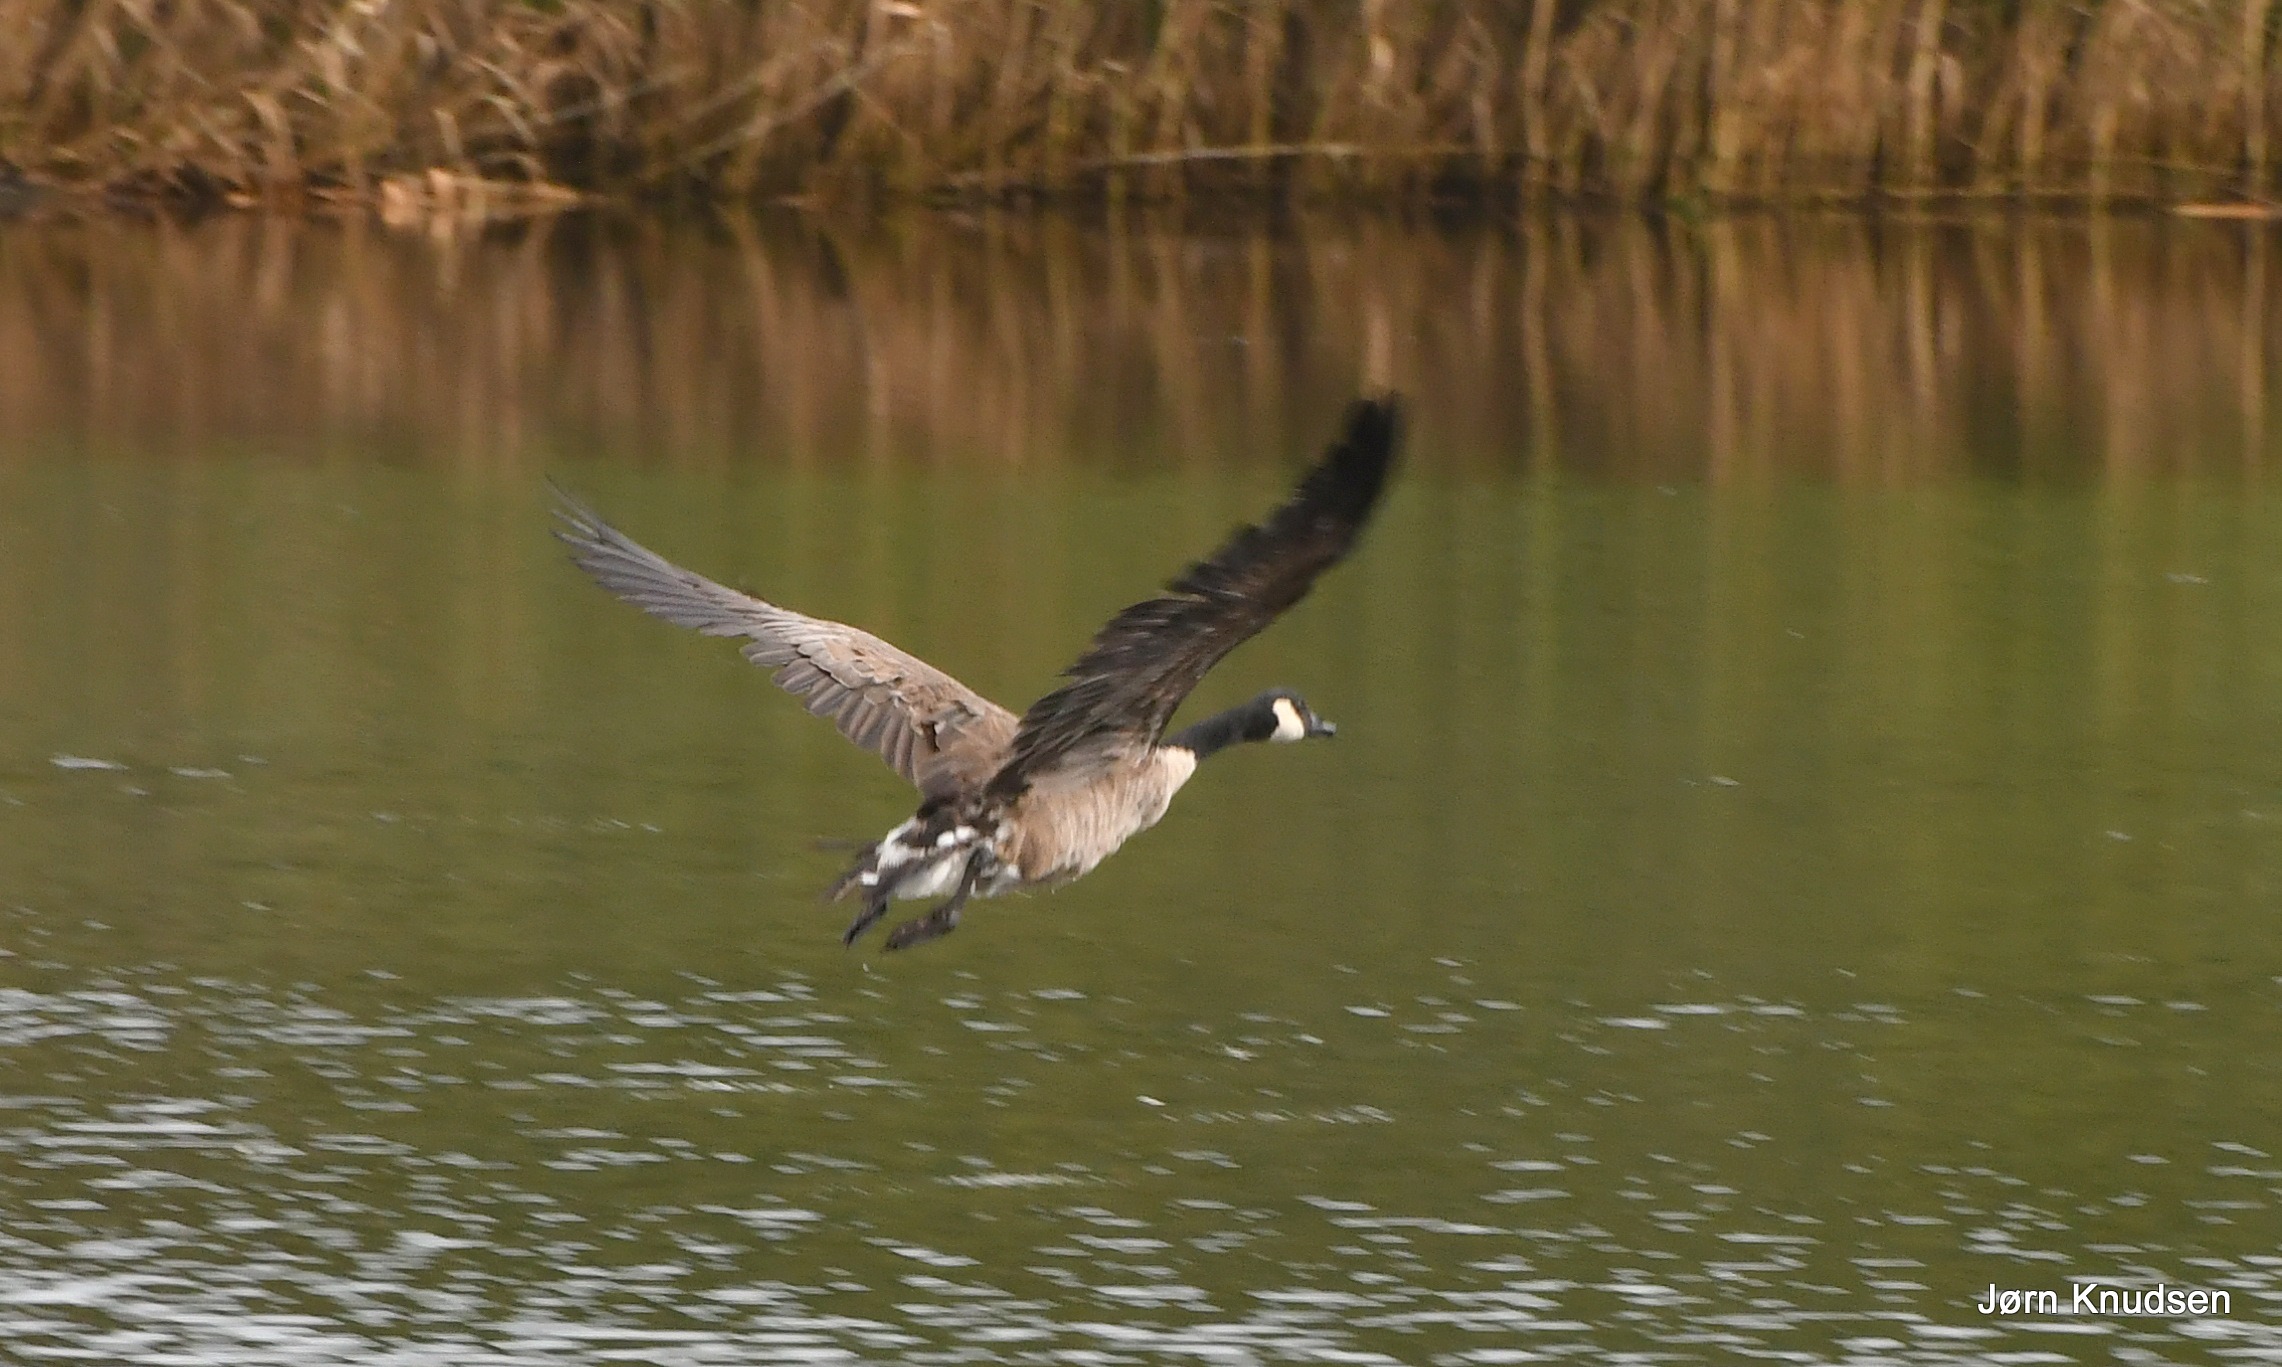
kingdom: Animalia
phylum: Chordata
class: Aves
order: Anseriformes
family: Anatidae
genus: Branta
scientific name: Branta canadensis
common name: Canadagås
